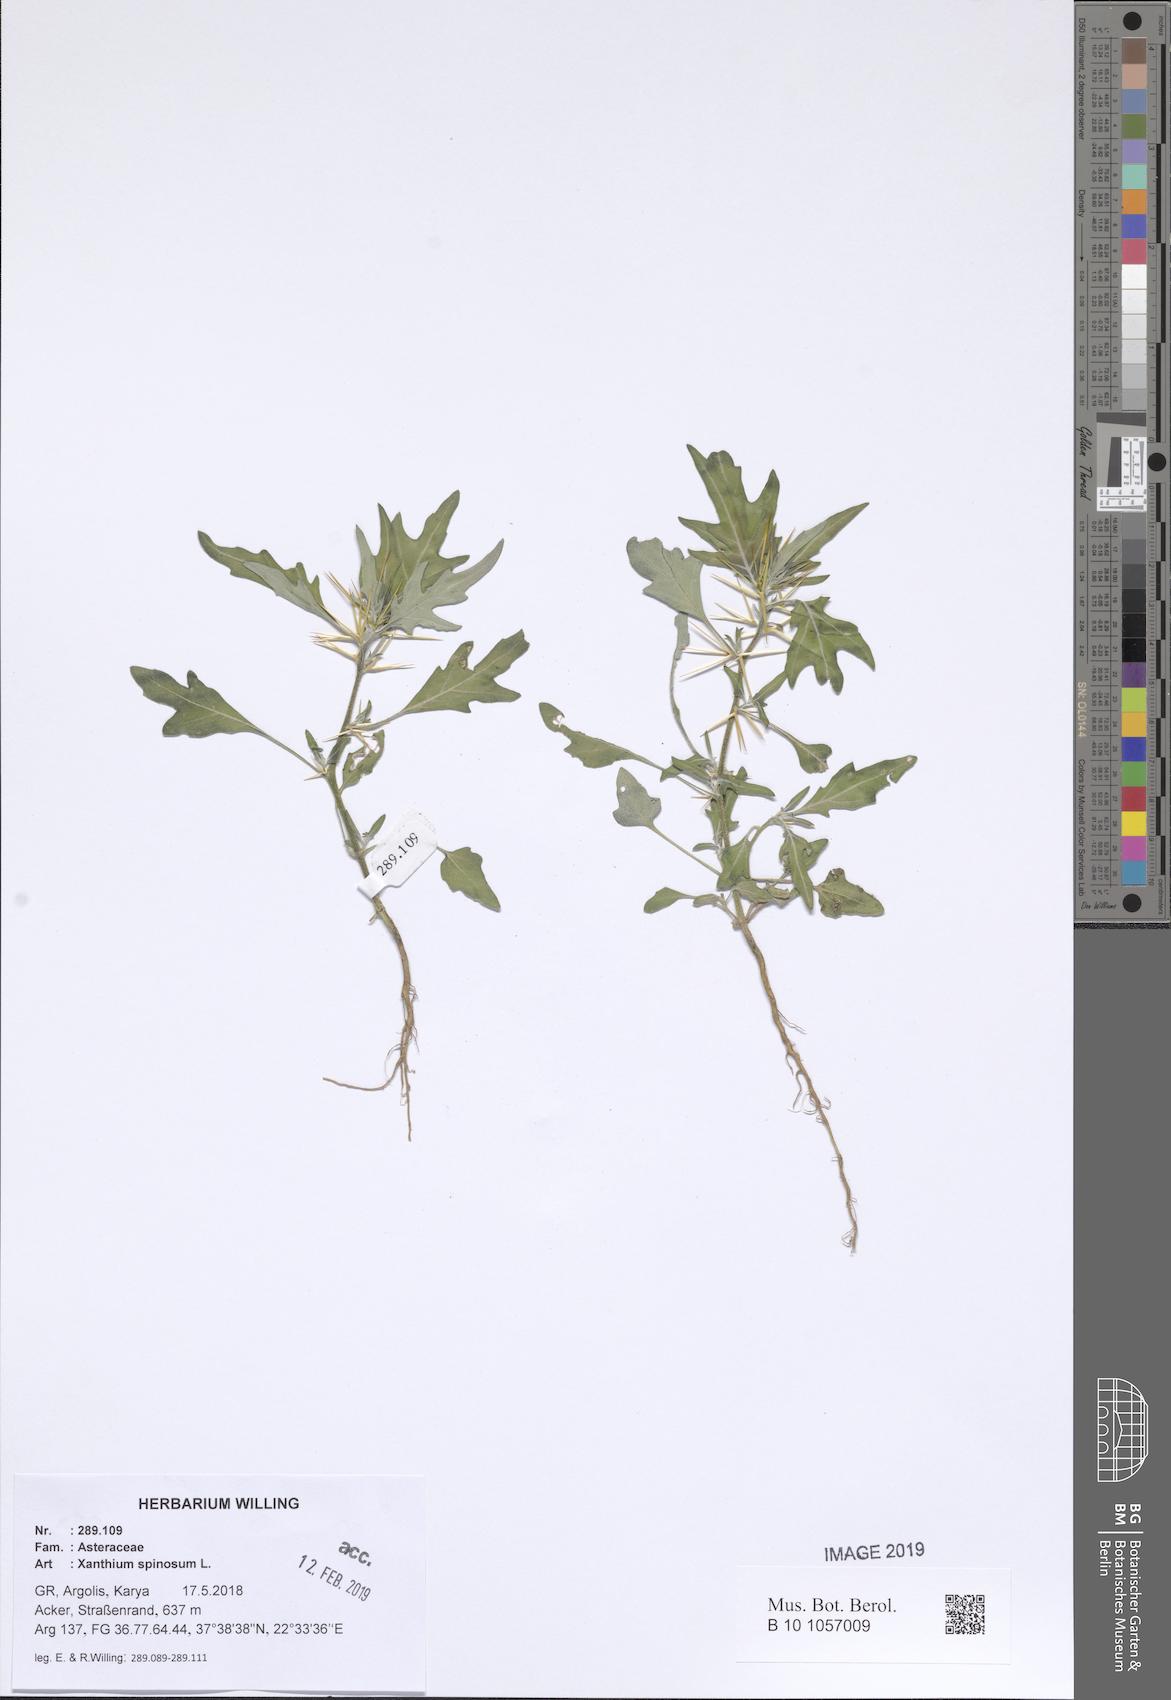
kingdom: Plantae
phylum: Tracheophyta
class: Magnoliopsida
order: Asterales
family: Asteraceae
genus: Xanthium
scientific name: Xanthium spinosum
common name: Spiny cocklebur
